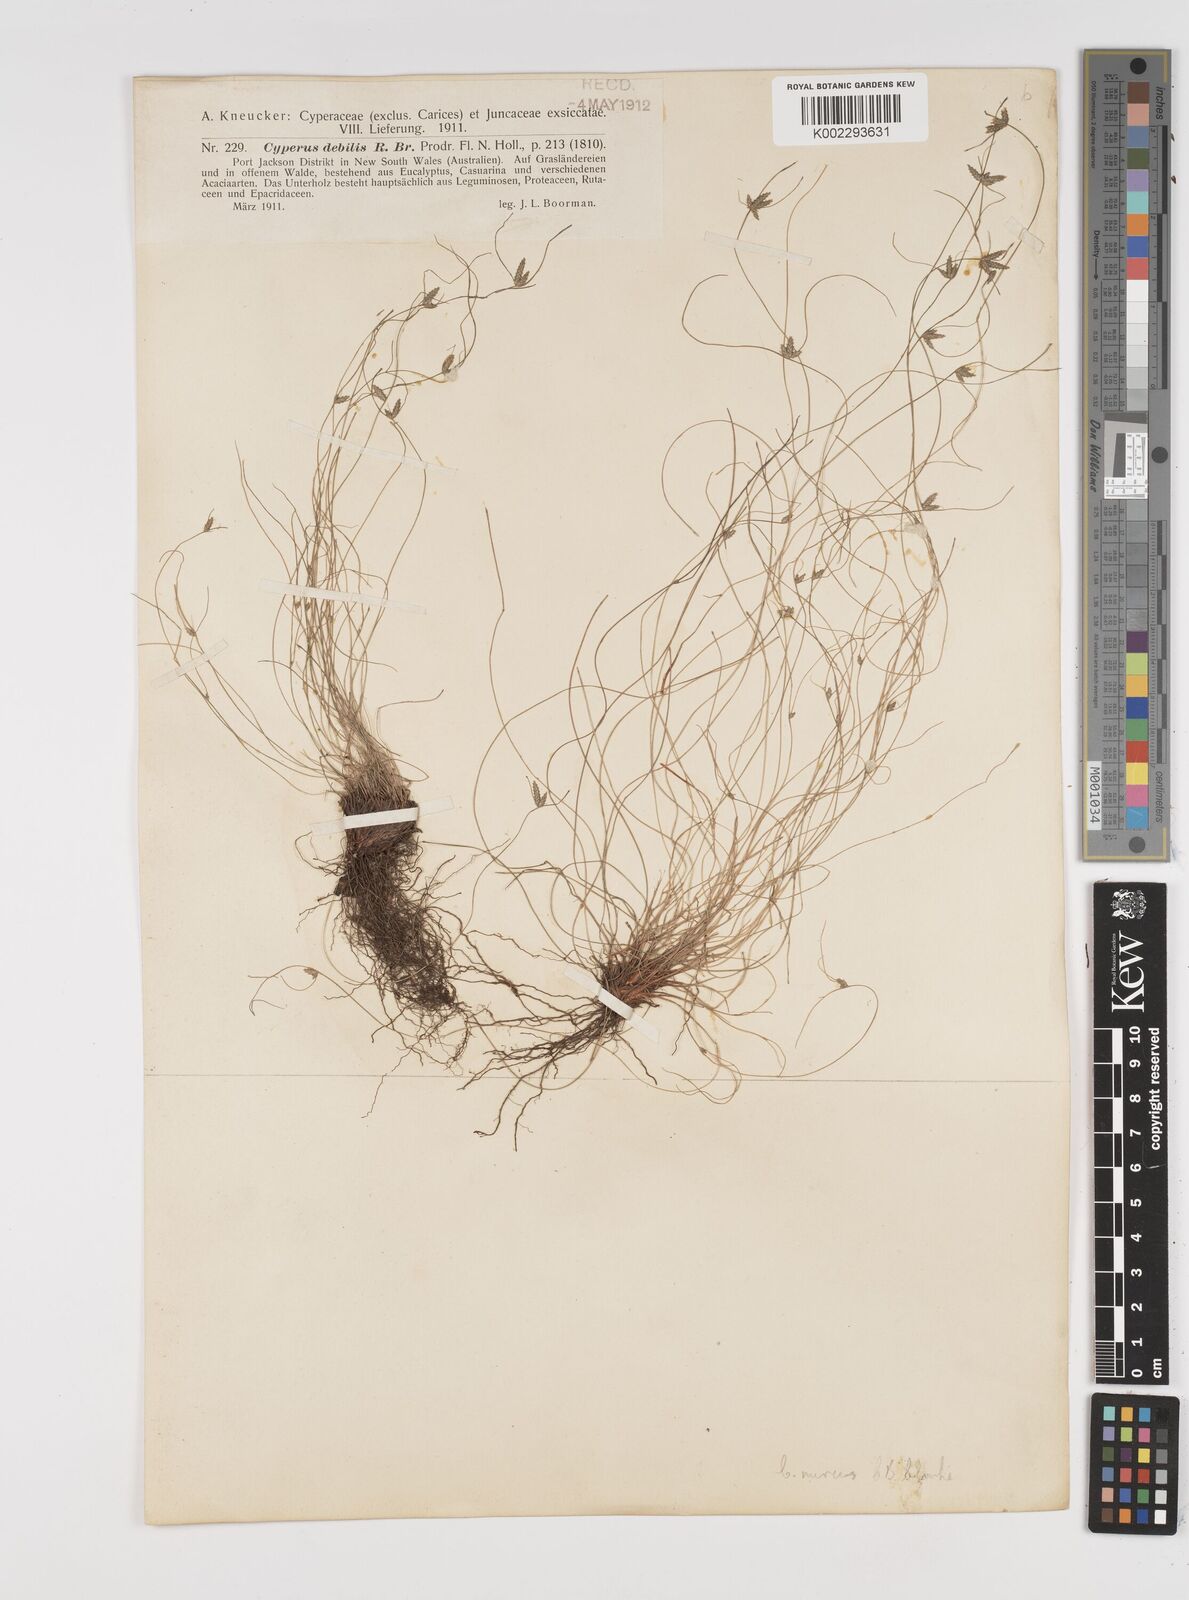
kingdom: Plantae
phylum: Tracheophyta
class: Liliopsida
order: Poales
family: Cyperaceae
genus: Cyperus
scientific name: Cyperus mirus
